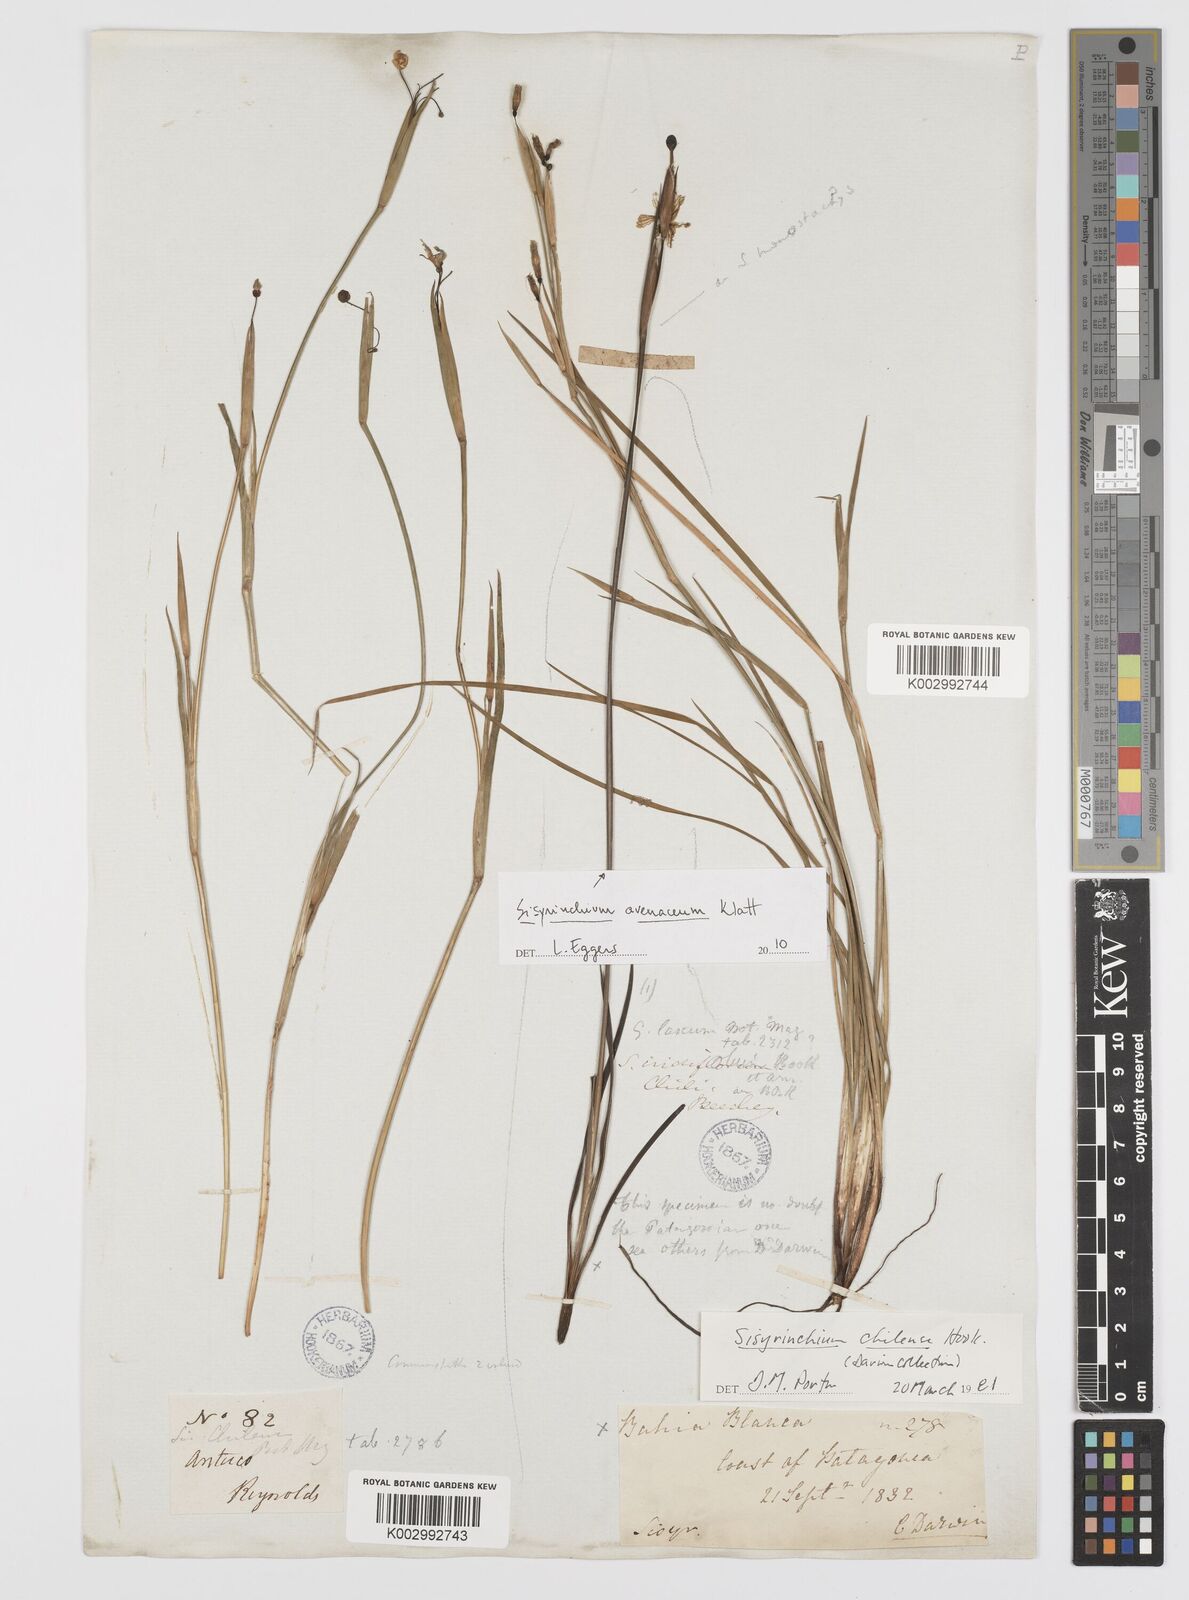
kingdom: Plantae
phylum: Tracheophyta
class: Liliopsida
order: Asparagales
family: Iridaceae
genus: Sisyrinchium
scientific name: Sisyrinchium chilense
